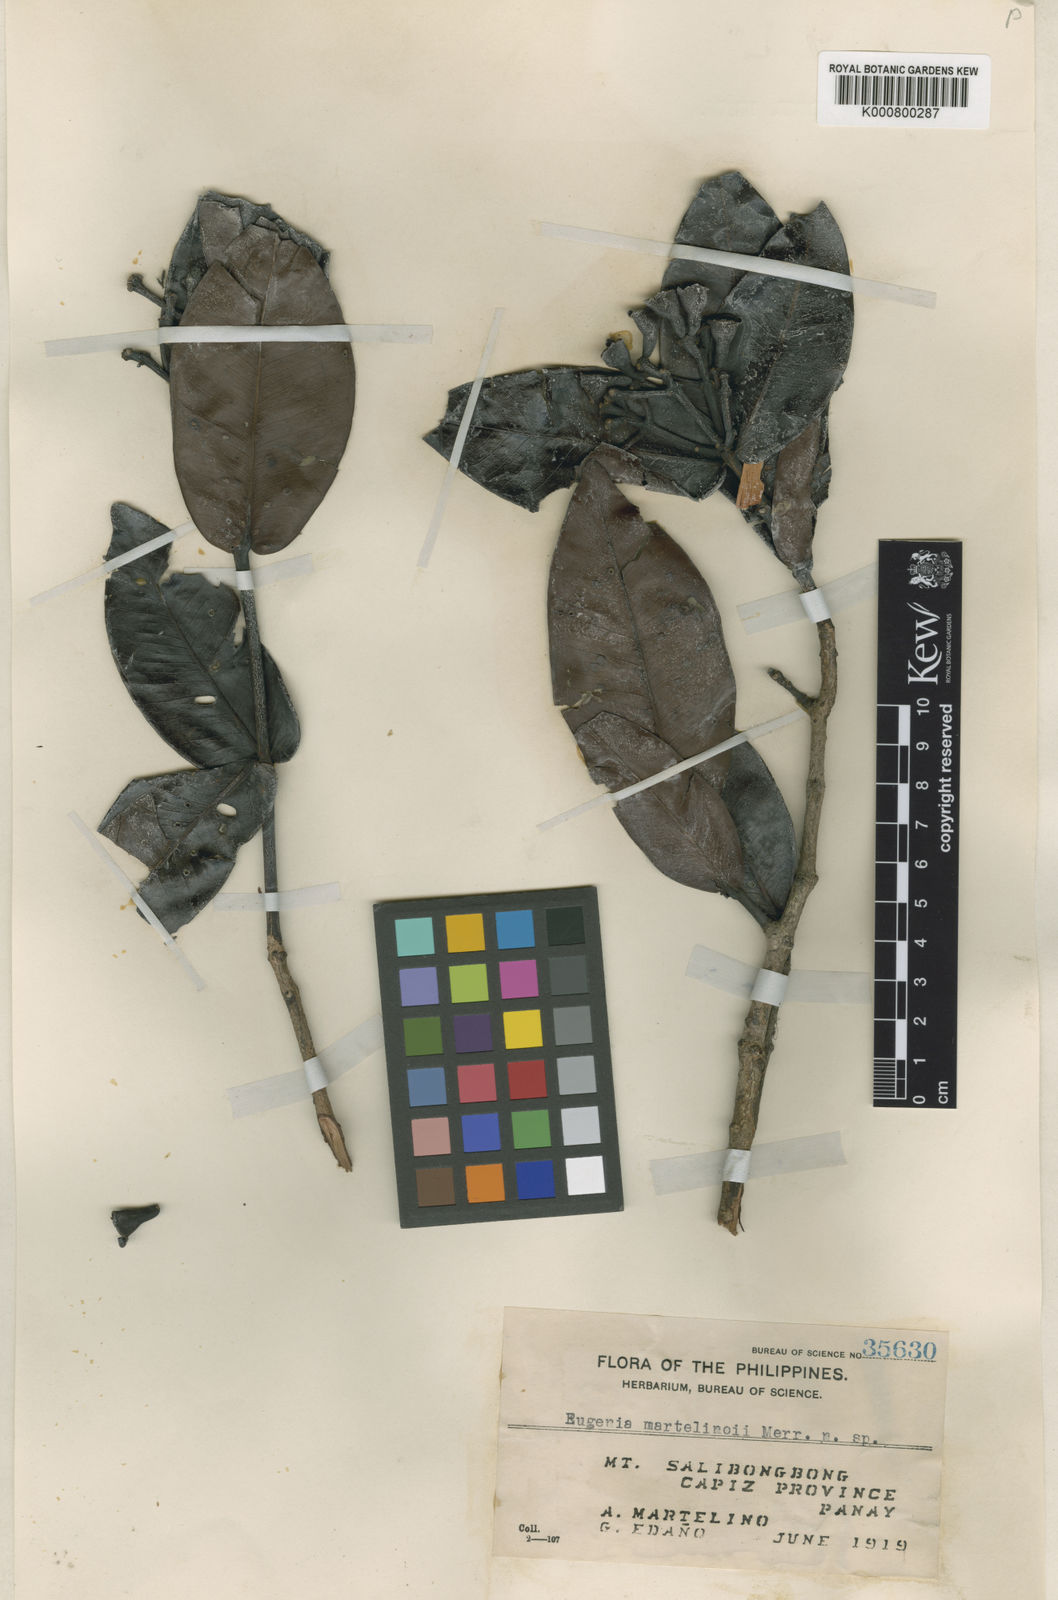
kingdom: Plantae
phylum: Tracheophyta
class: Magnoliopsida
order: Myrtales
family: Myrtaceae
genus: Syzygium
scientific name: Syzygium martelinoi
